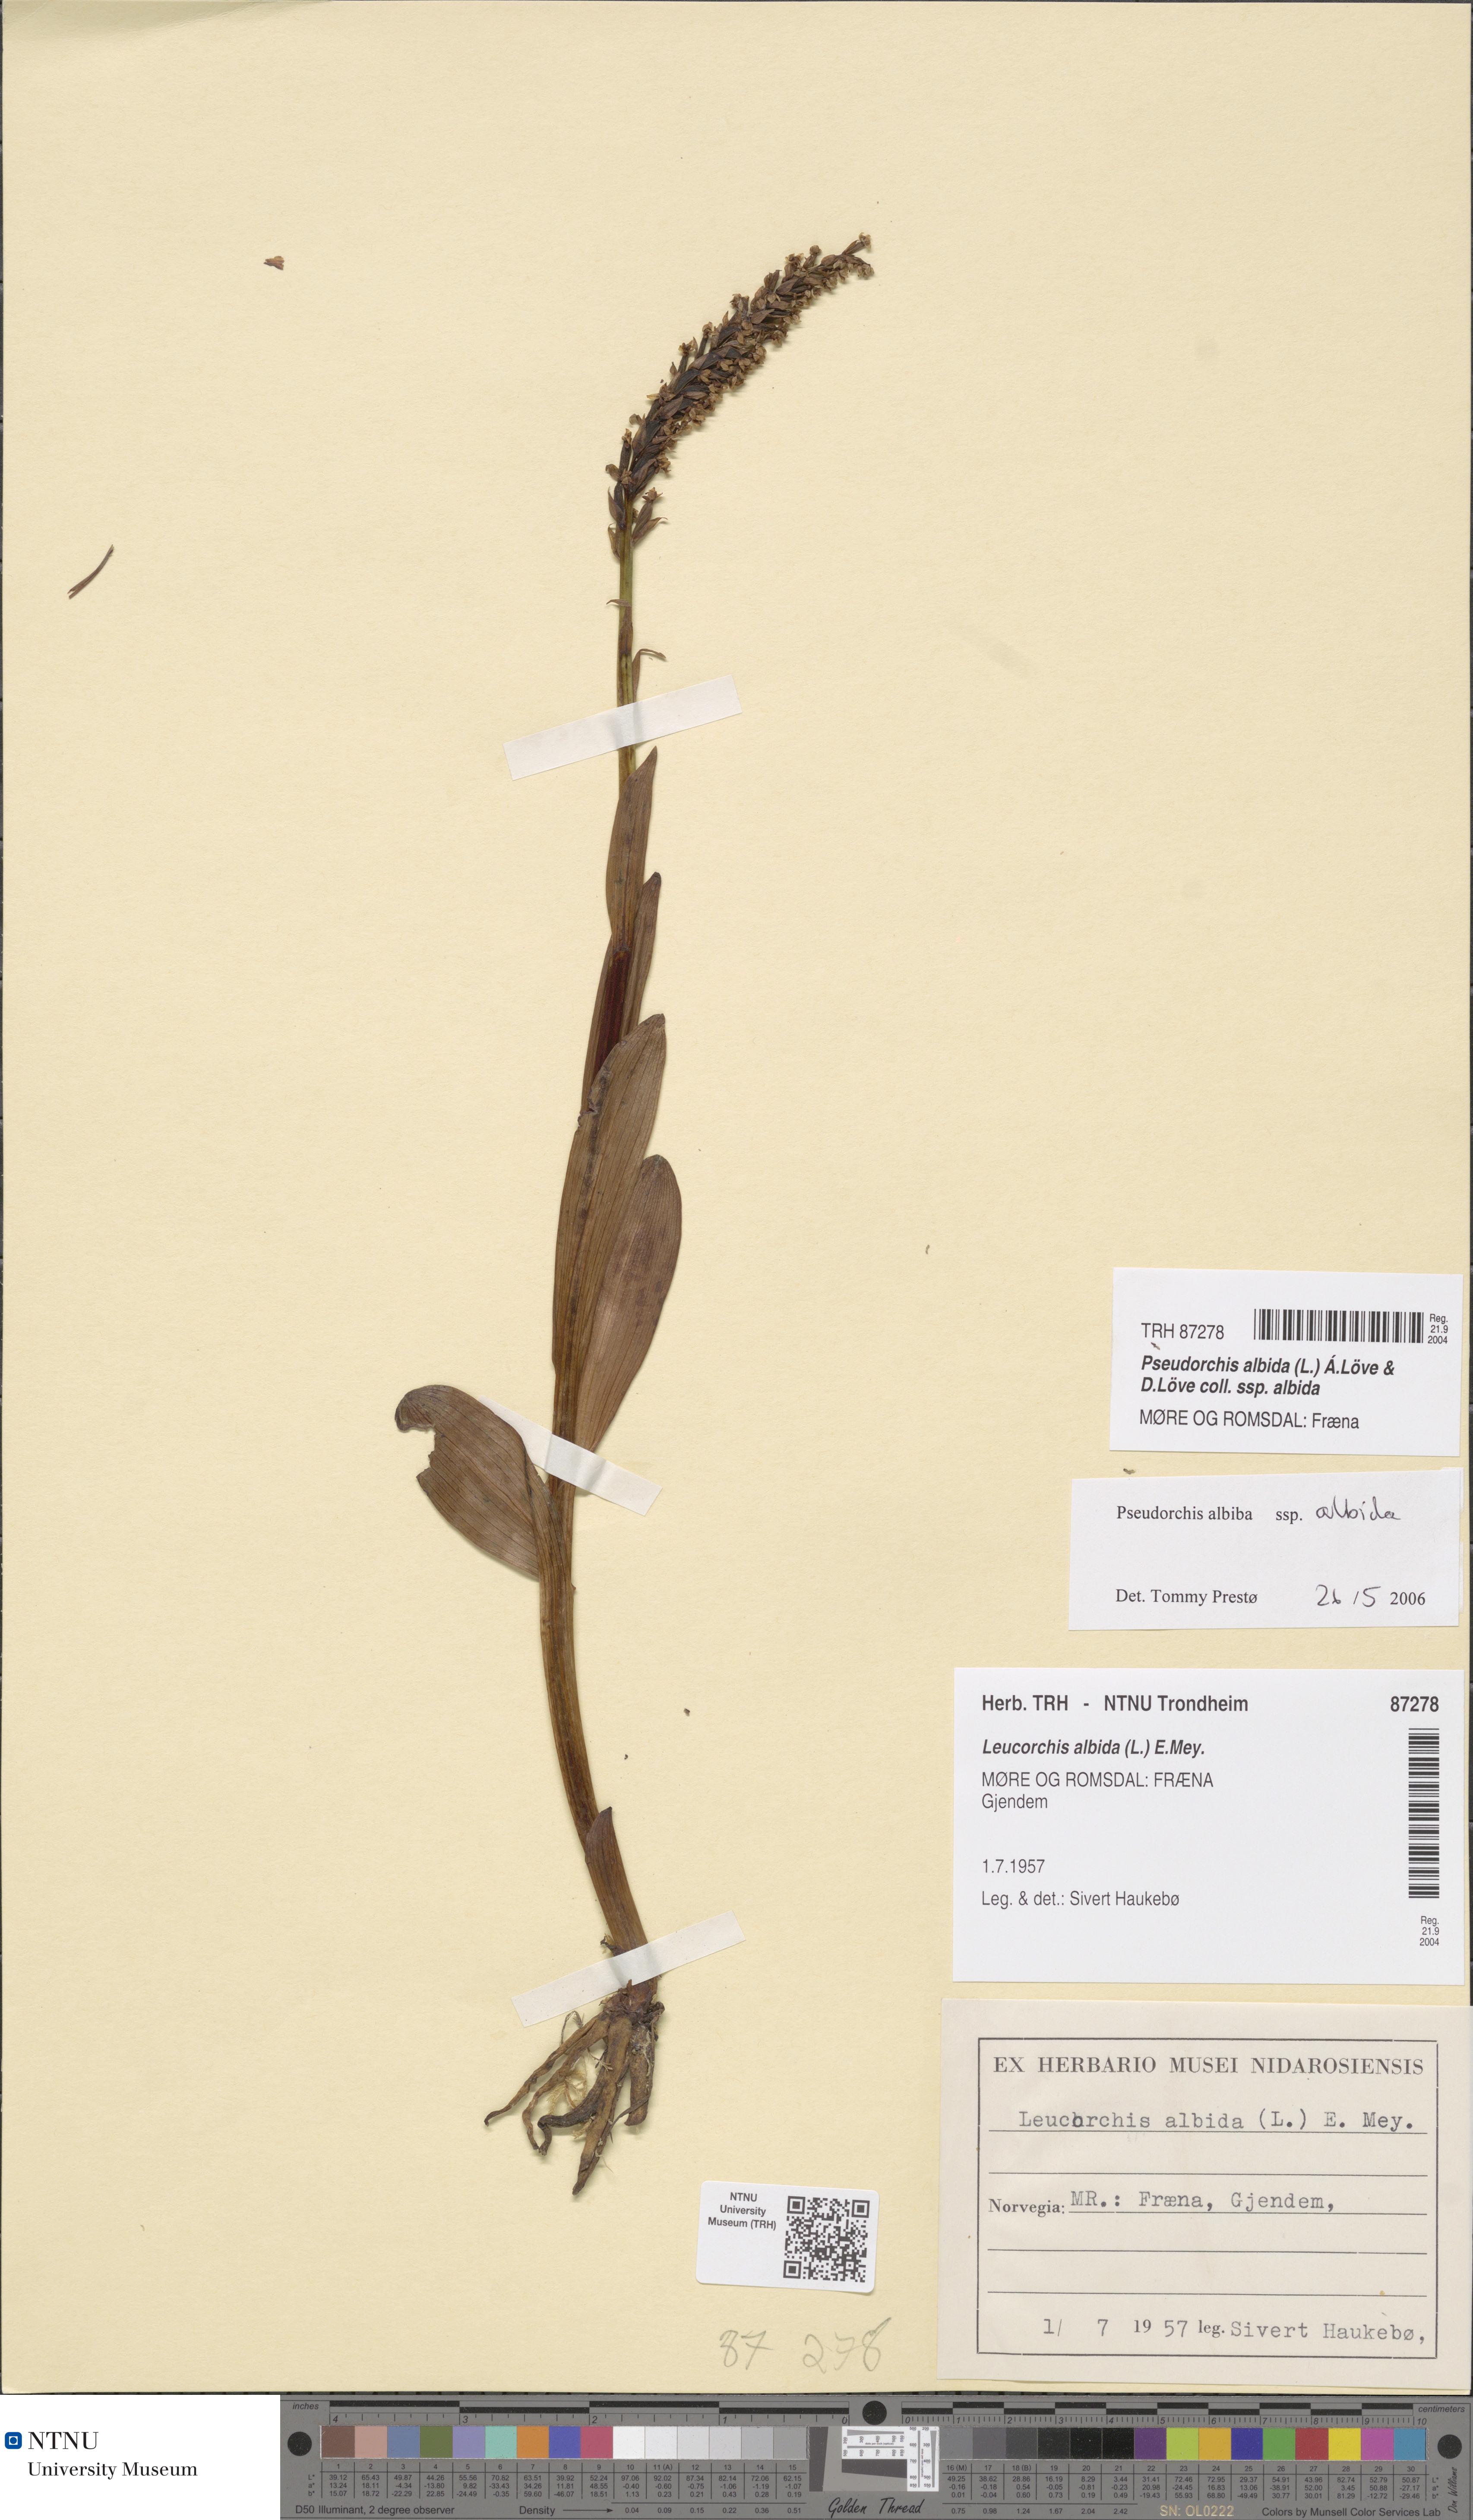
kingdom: Plantae
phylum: Tracheophyta
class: Liliopsida
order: Asparagales
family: Orchidaceae
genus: Pseudorchis
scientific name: Pseudorchis albida
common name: Small-white orchid
